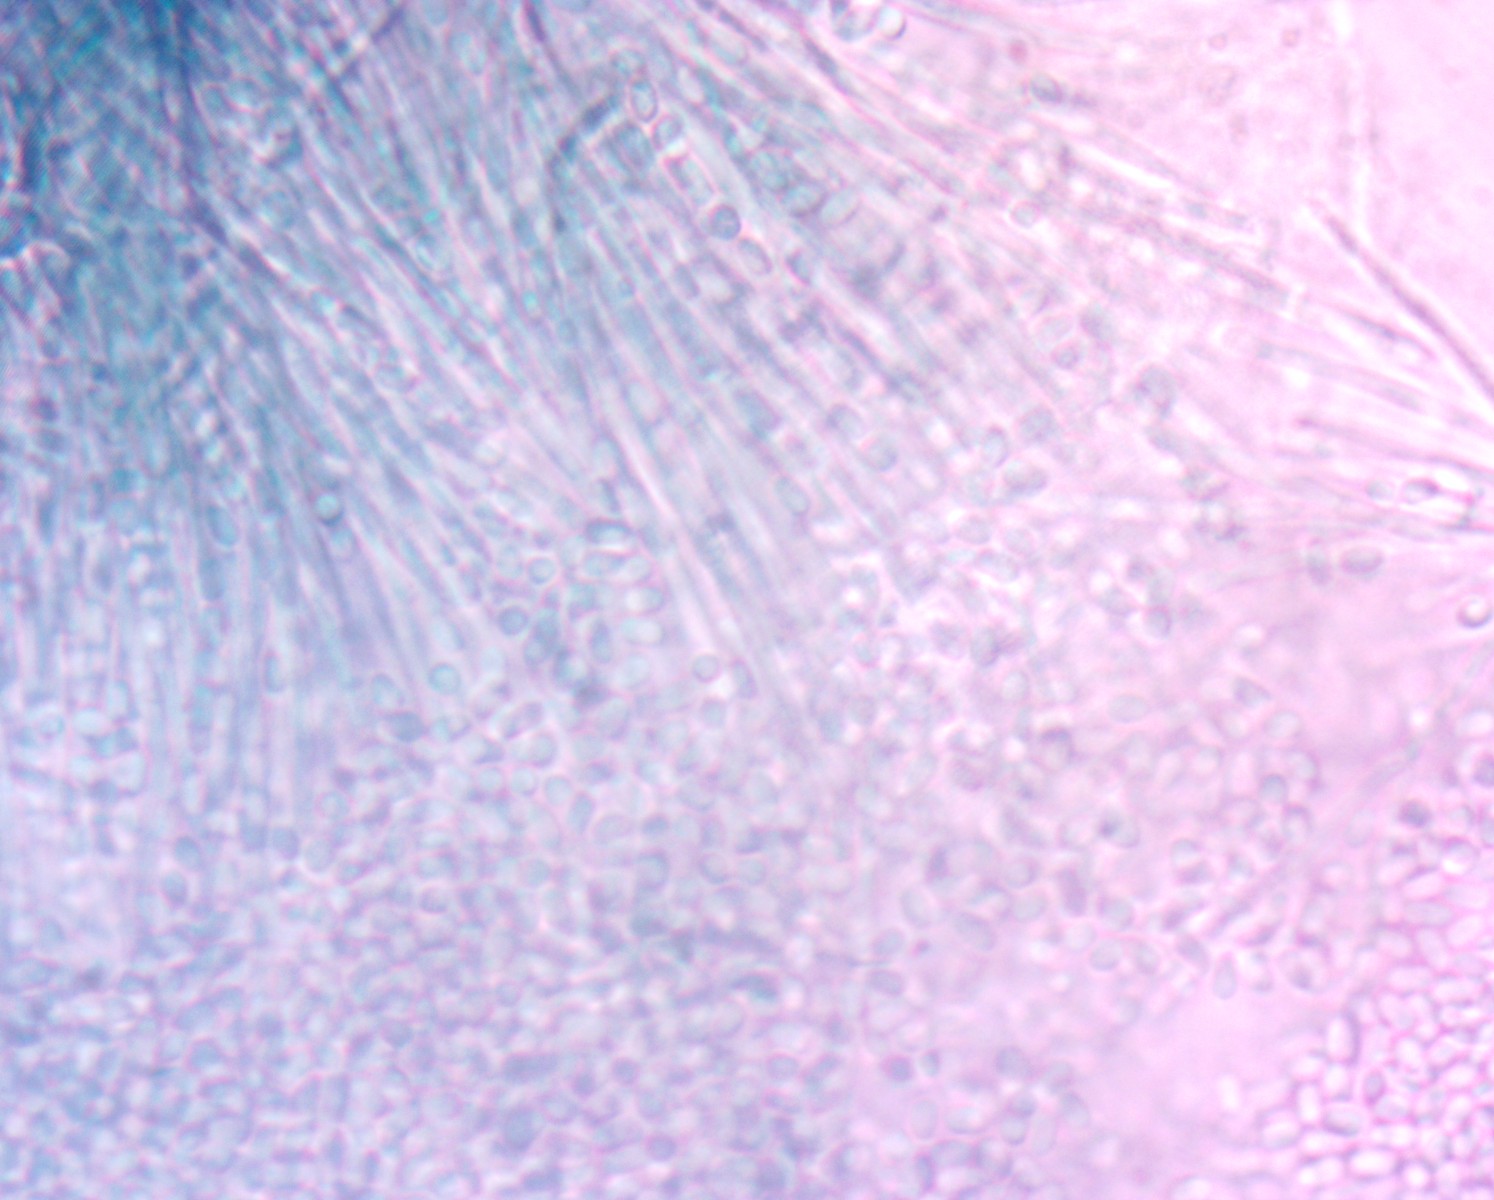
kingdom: Fungi
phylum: Ascomycota
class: Leotiomycetes
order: Leotiales
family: Tympanidaceae
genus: Dendrostilbella
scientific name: Dendrostilbella smaragdina
